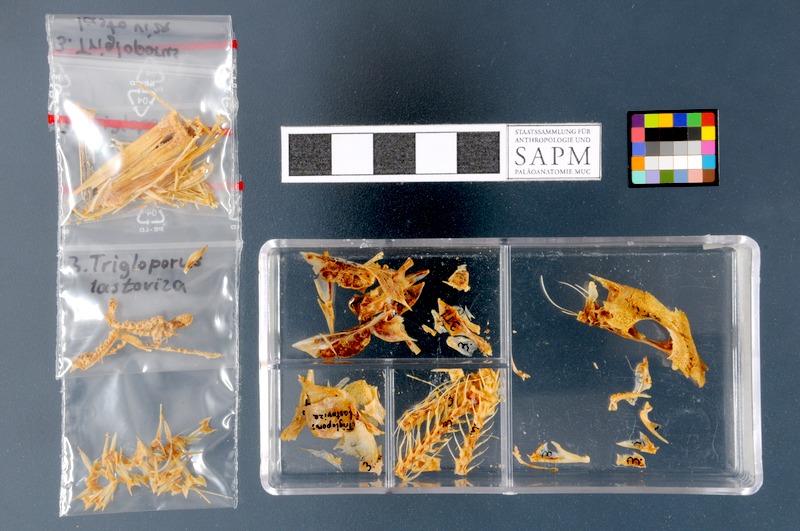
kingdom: Animalia
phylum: Chordata
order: Scorpaeniformes
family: Triglidae
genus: Chelidonichthys
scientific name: Chelidonichthys lastoviza
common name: Streaked gurnard
